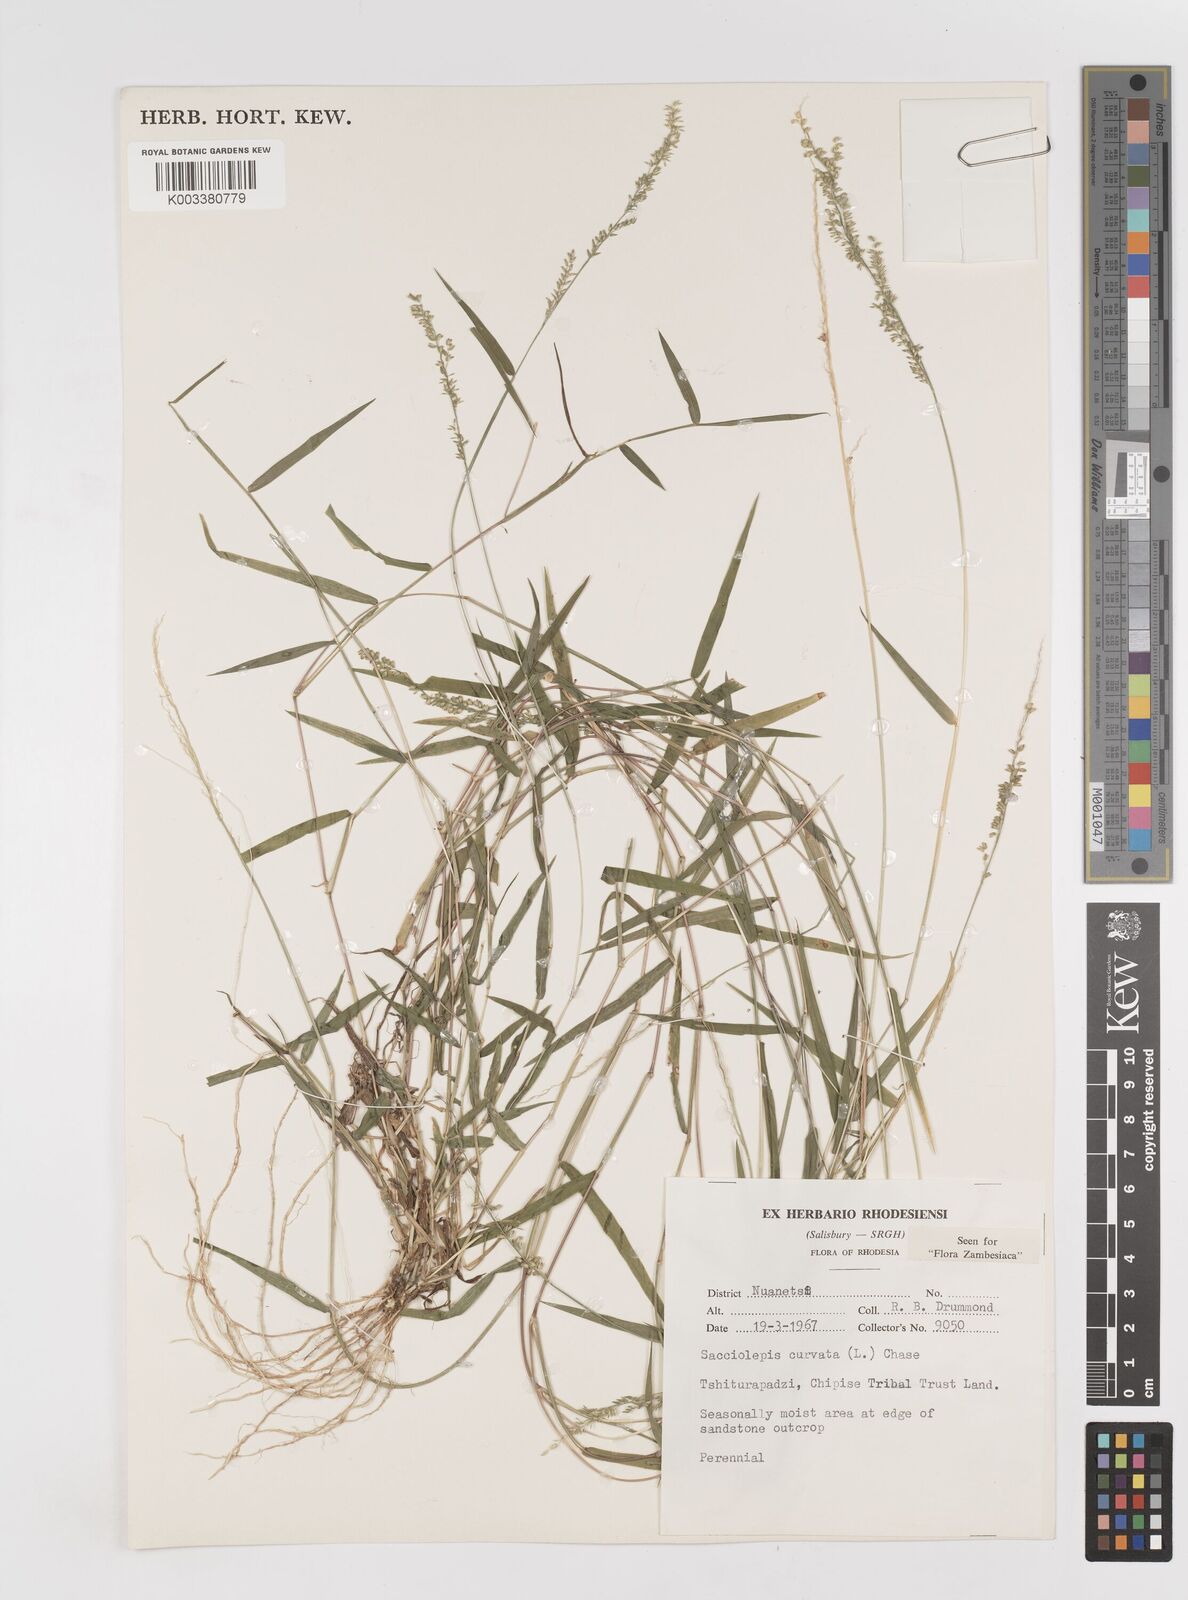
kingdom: Plantae
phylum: Tracheophyta
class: Liliopsida
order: Poales
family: Poaceae
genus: Sacciolepis
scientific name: Sacciolepis curvata
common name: Forest hood grass
